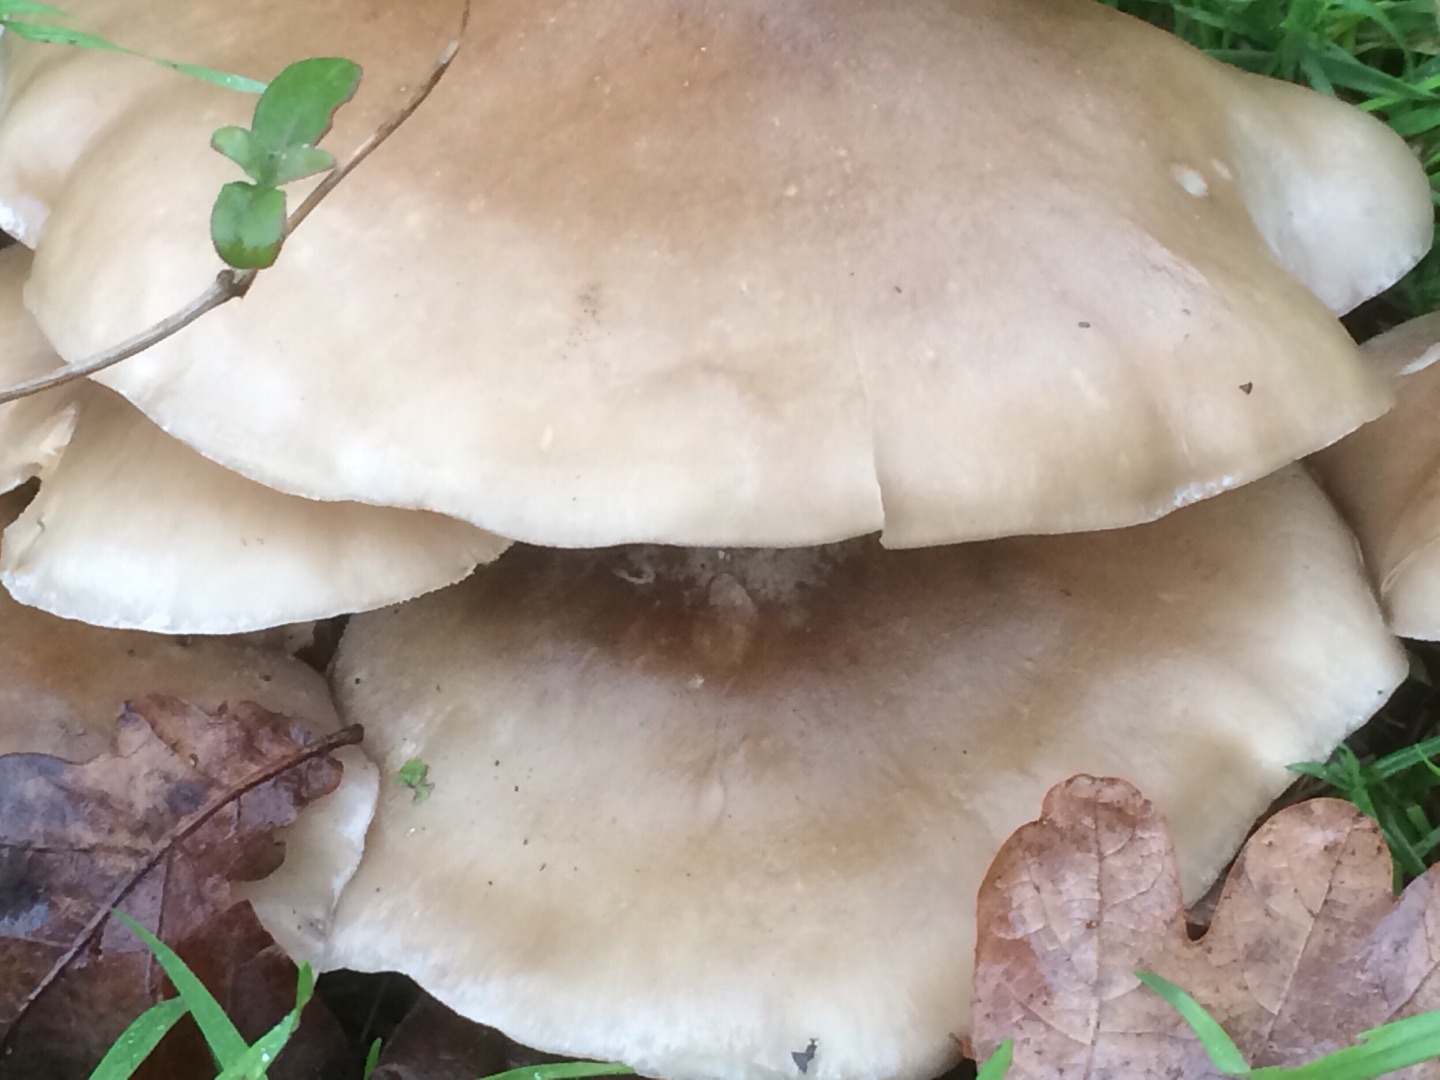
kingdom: Fungi
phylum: Basidiomycota
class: Agaricomycetes
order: Agaricales
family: Tricholomataceae
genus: Clitocybe
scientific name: Clitocybe nebularis
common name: Tåge-tragthat
